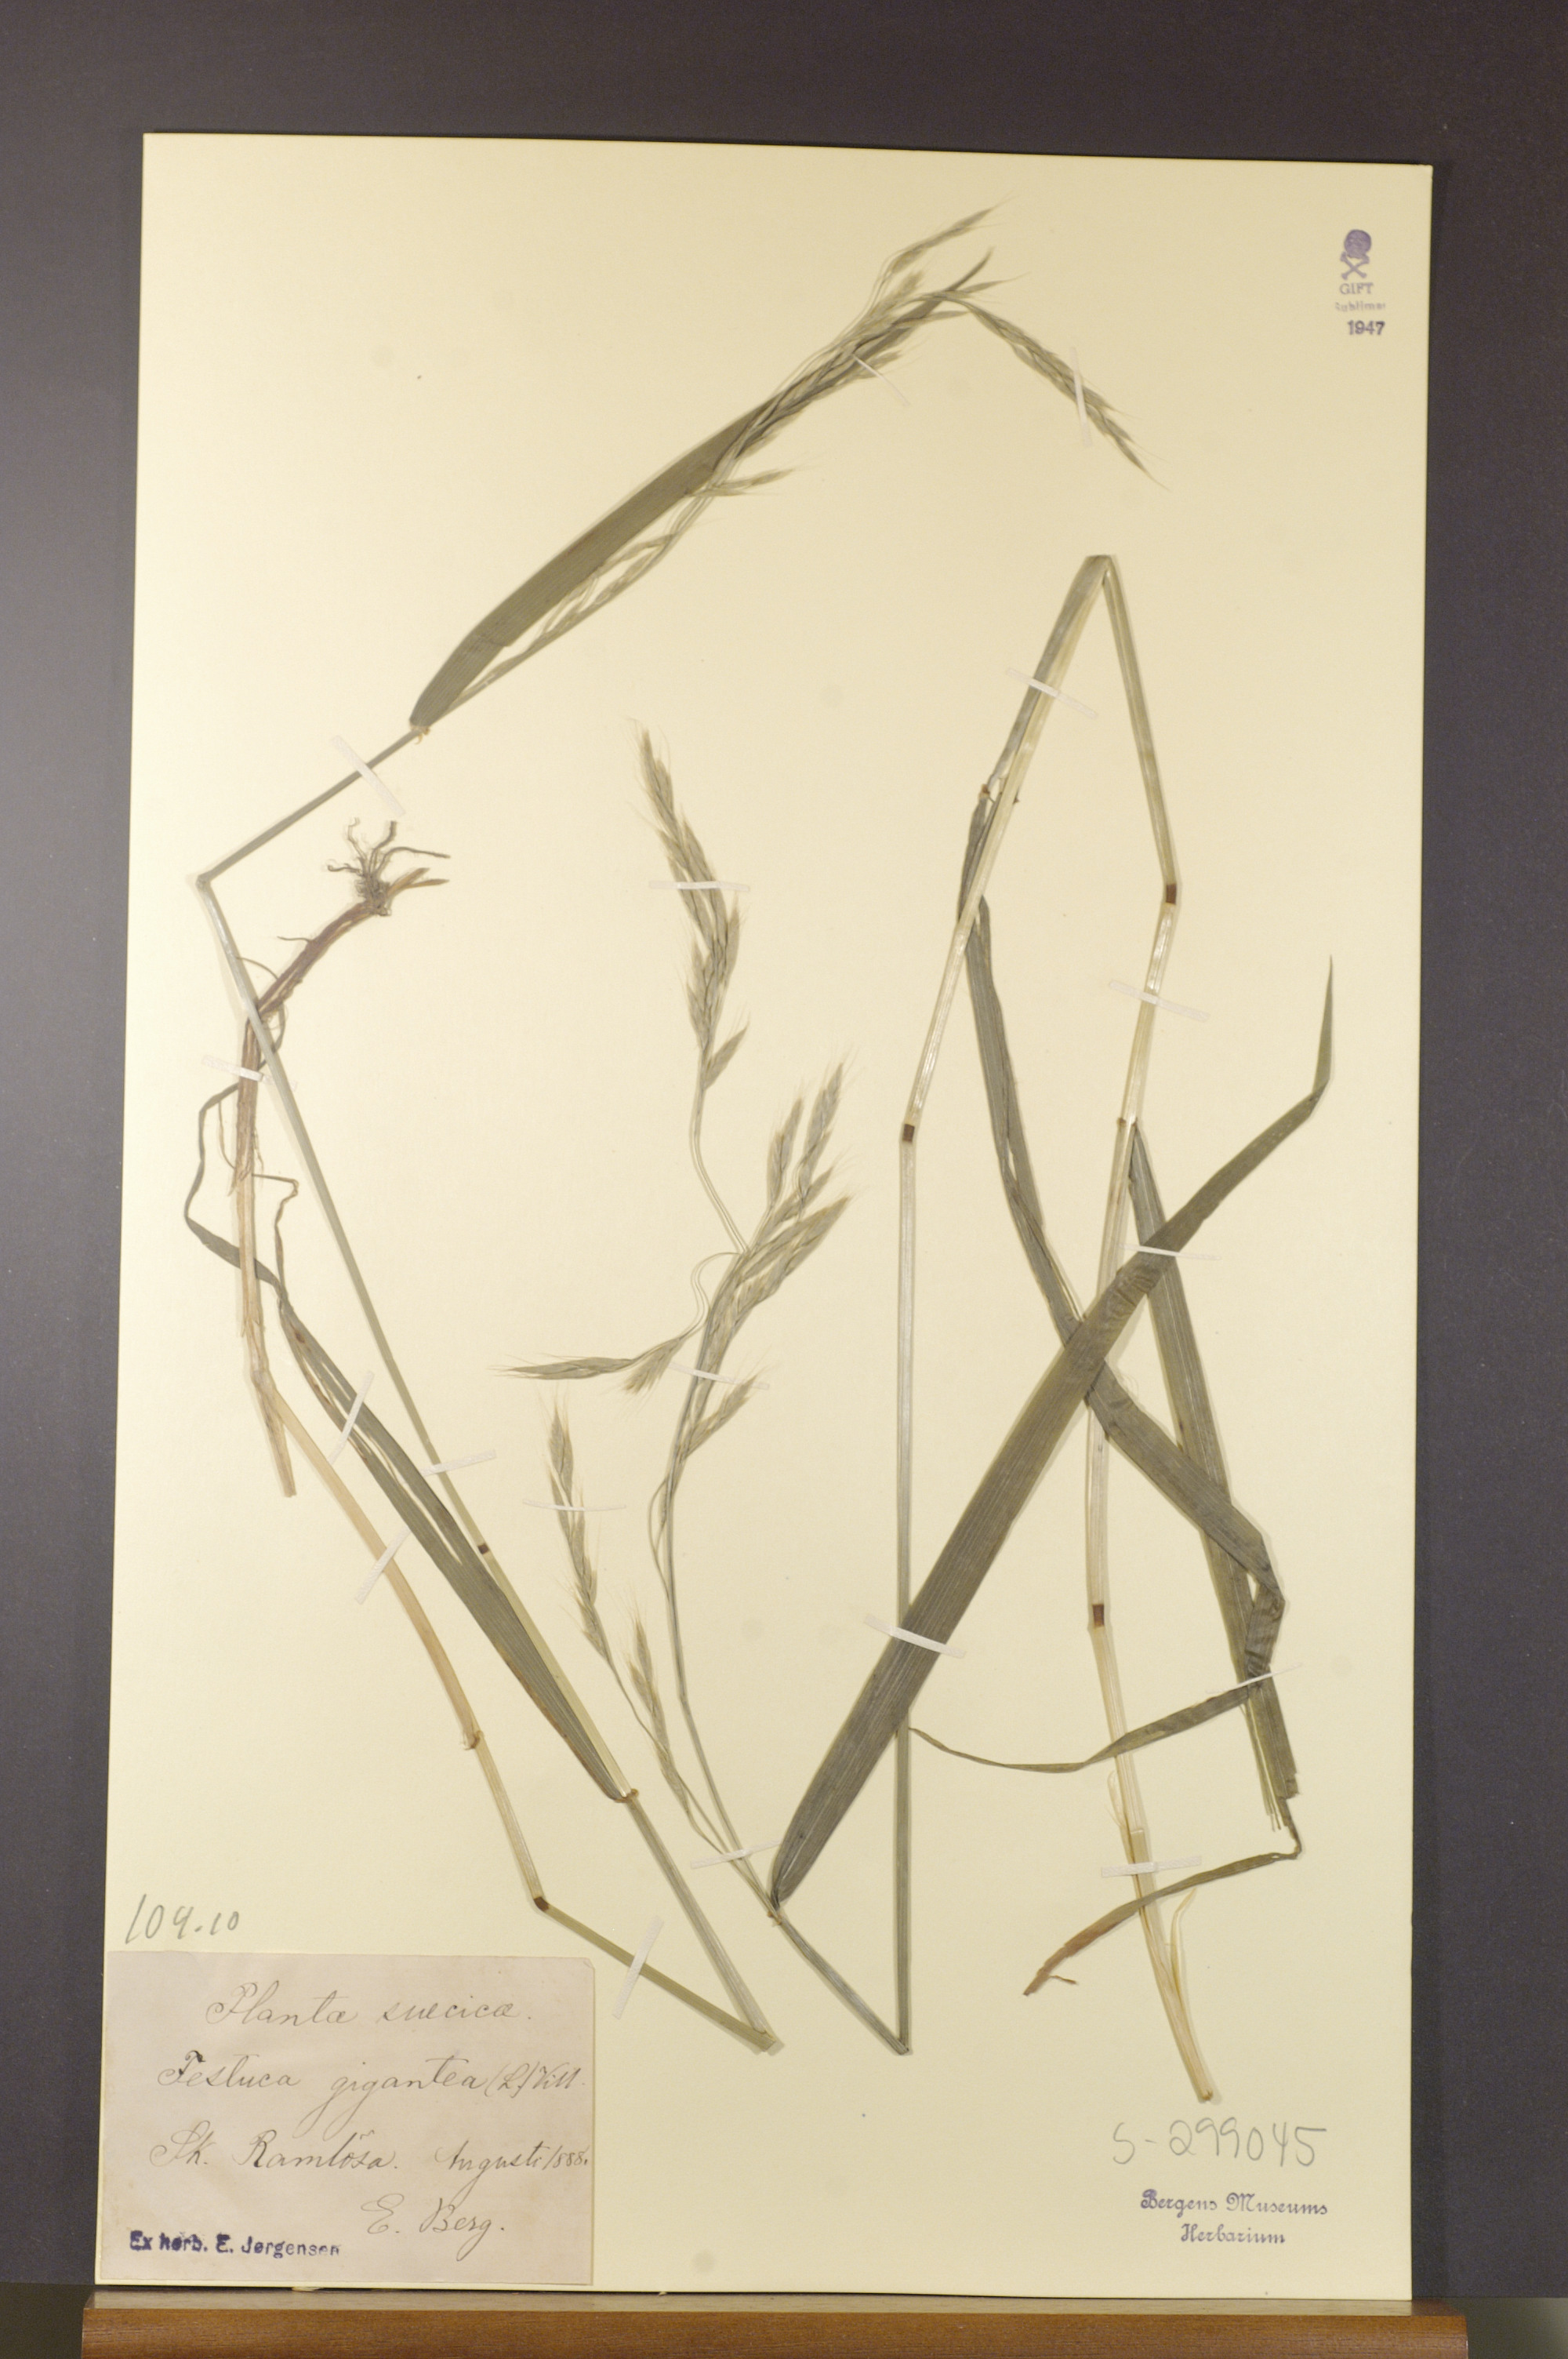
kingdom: Plantae
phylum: Tracheophyta
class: Liliopsida
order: Poales
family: Poaceae
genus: Lolium
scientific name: Lolium giganteum
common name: Giant fescue
